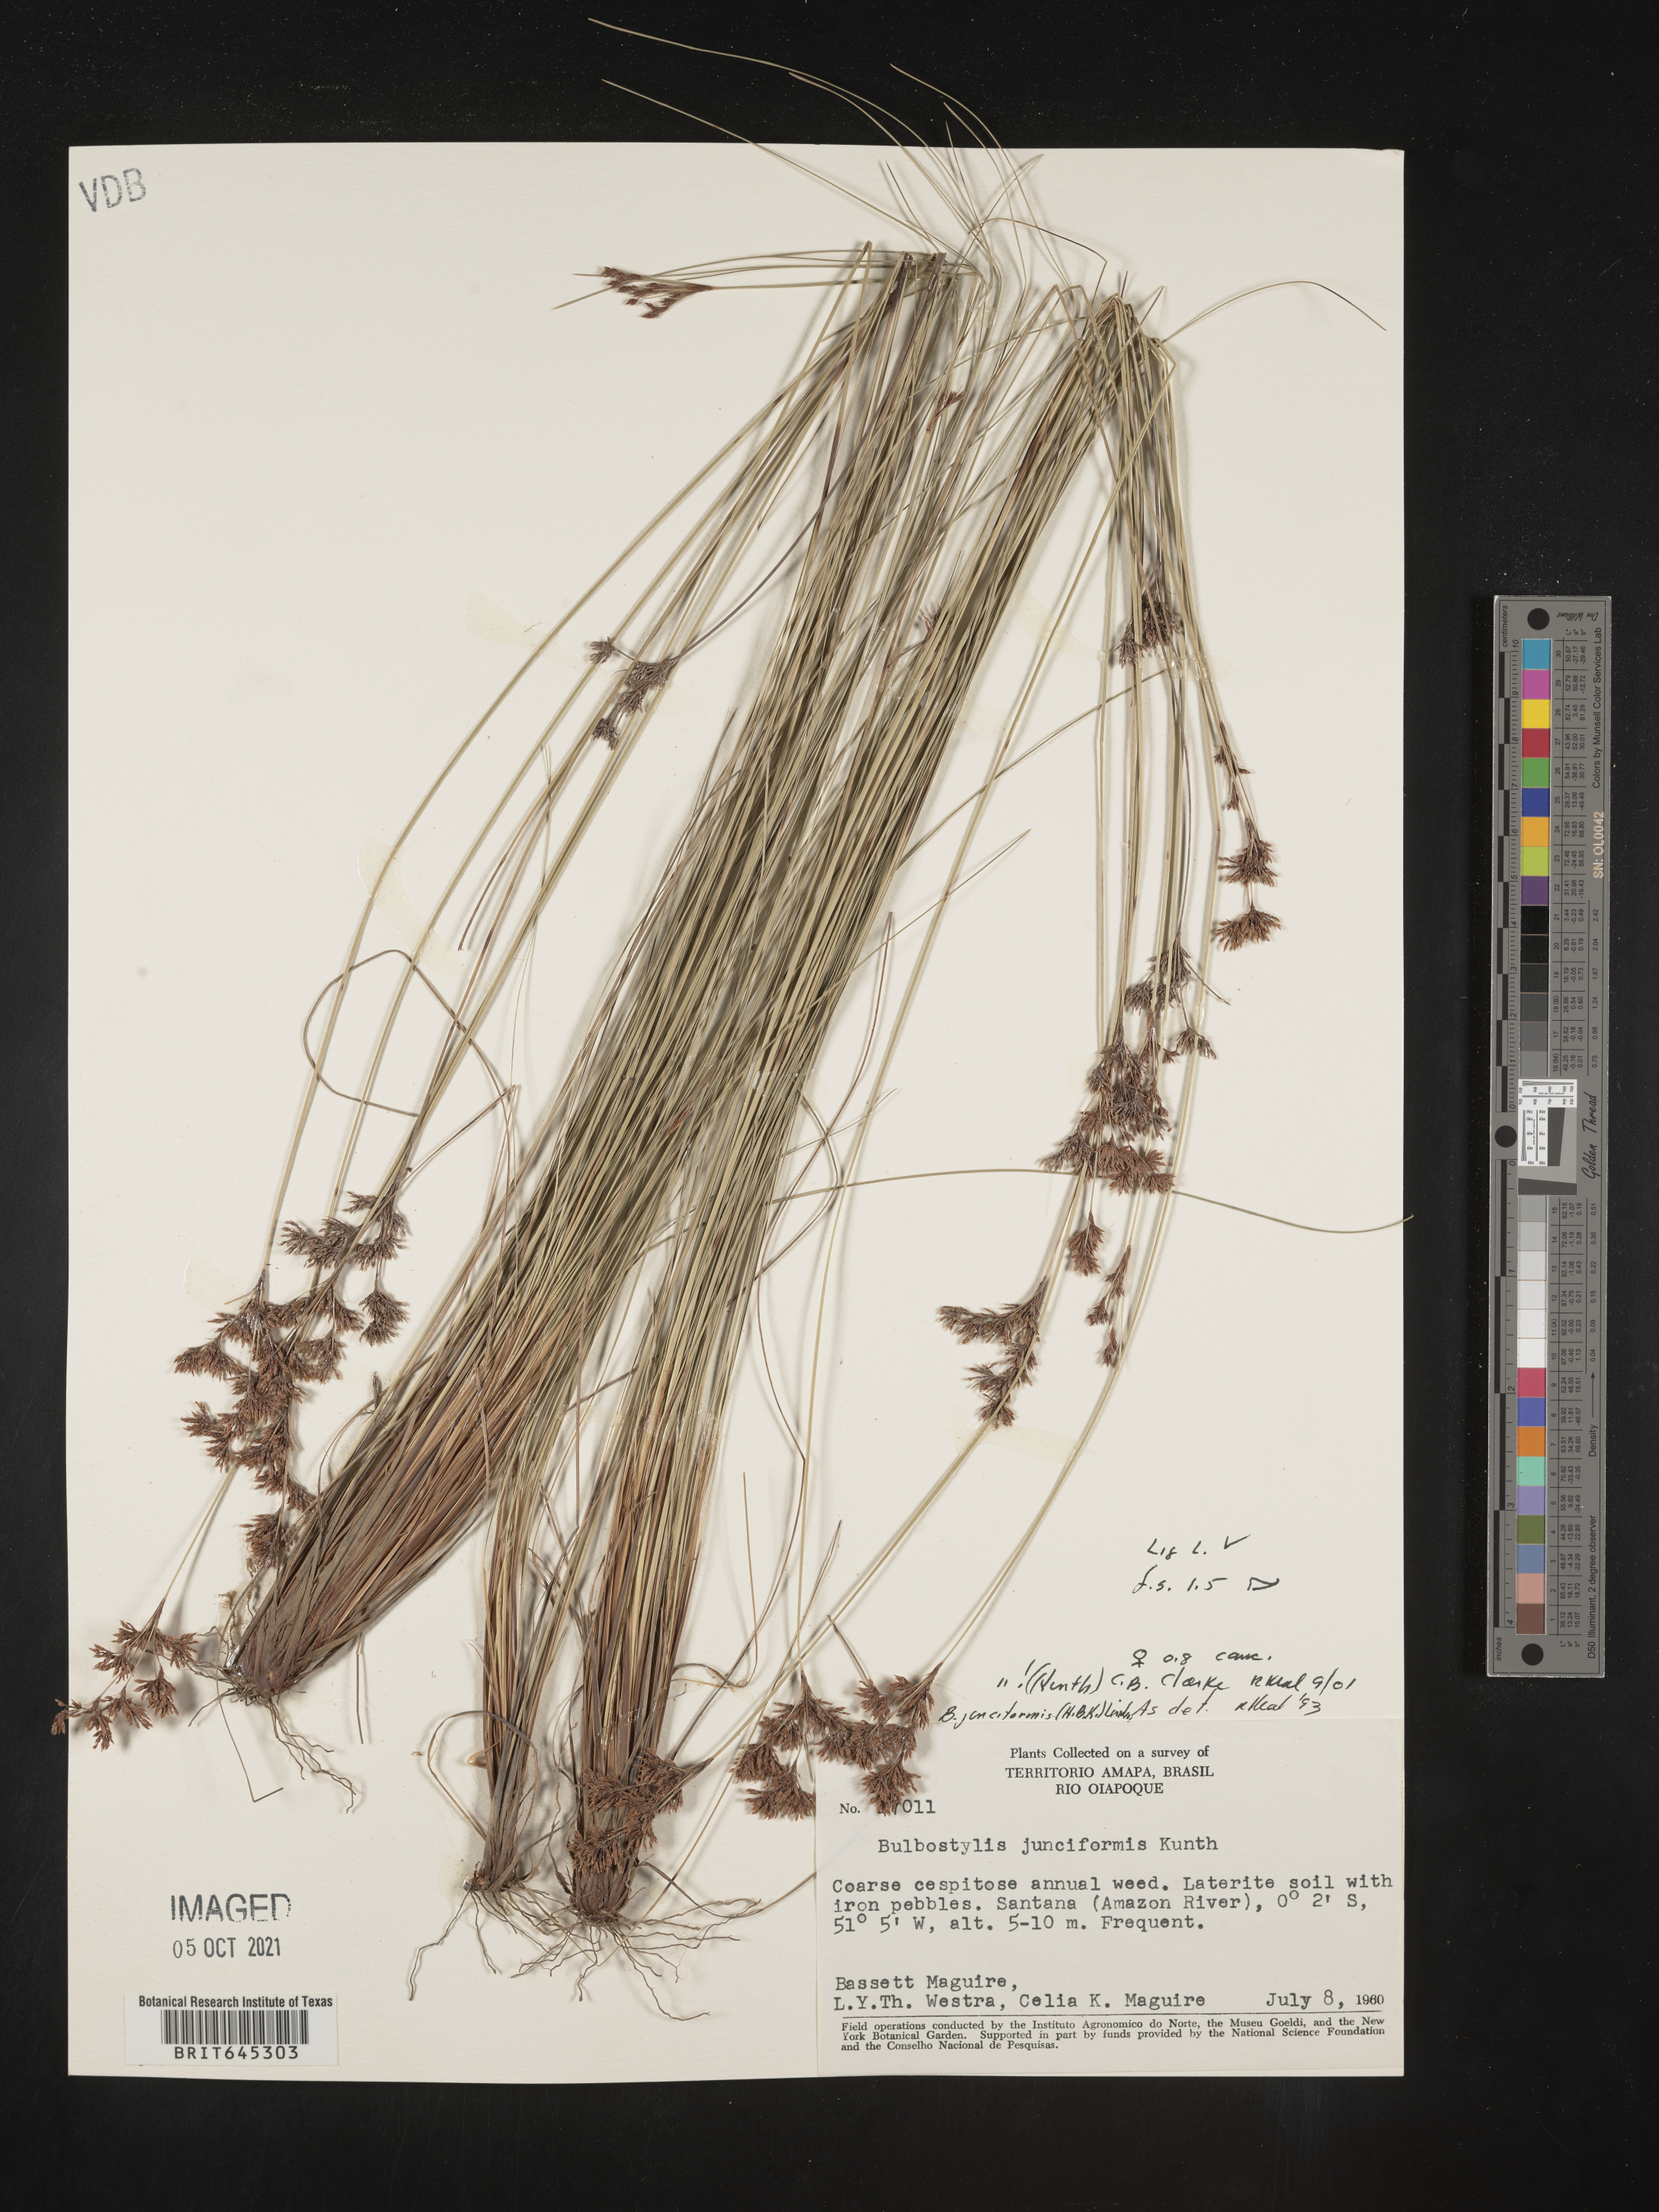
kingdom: Plantae
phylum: Tracheophyta
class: Liliopsida
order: Poales
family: Cyperaceae
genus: Bulbostylis
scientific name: Bulbostylis junciformis
